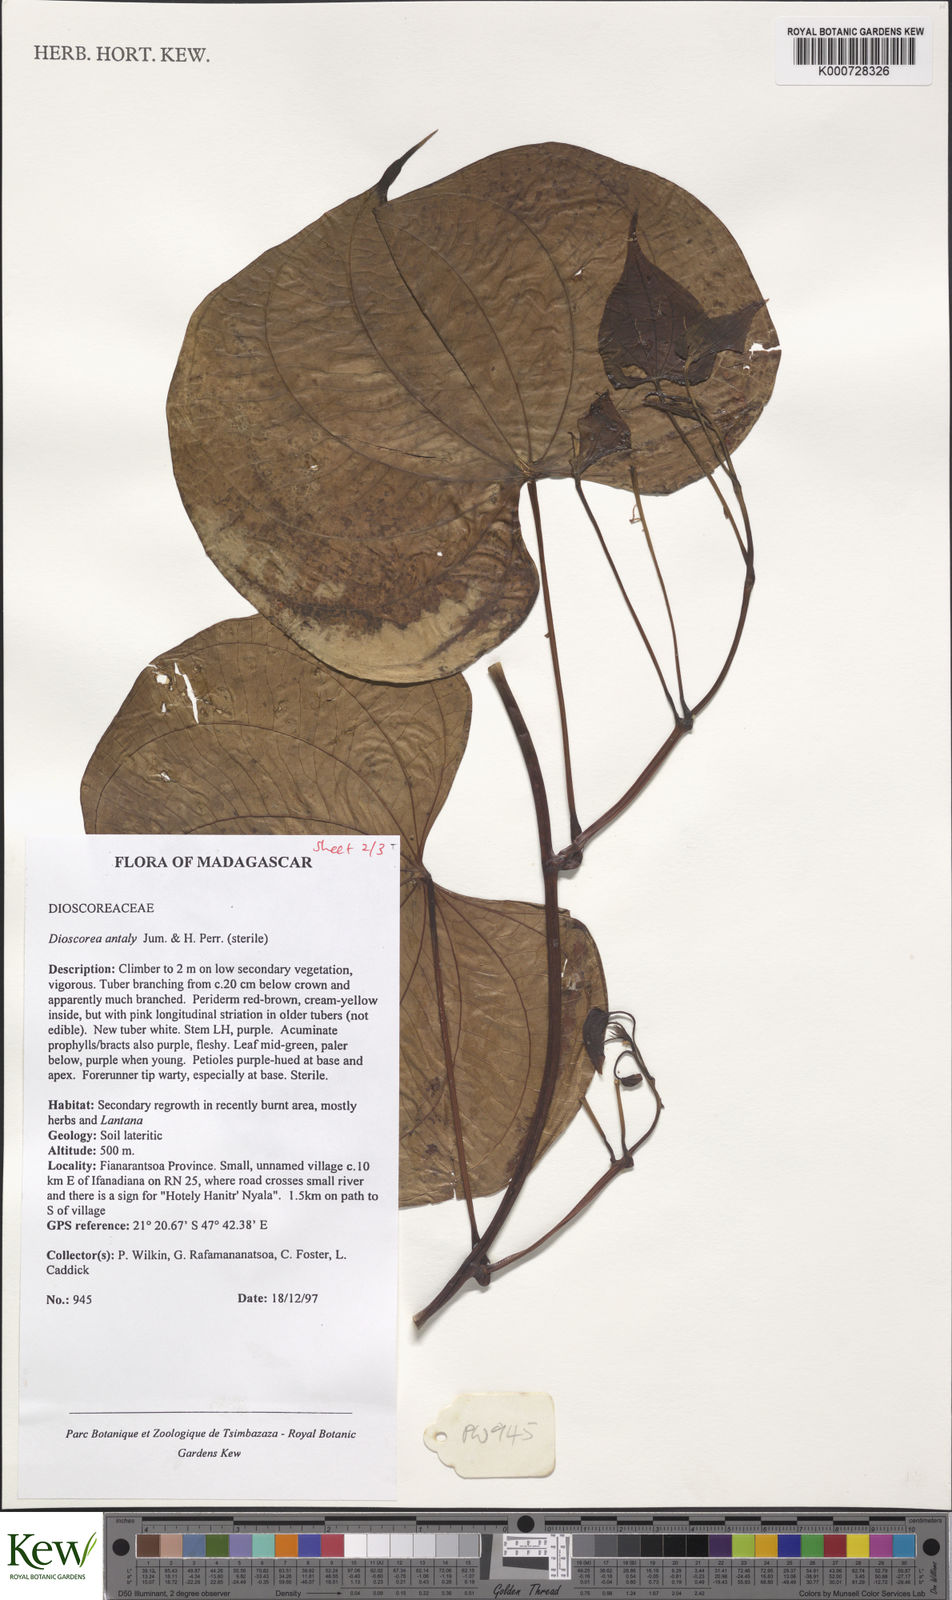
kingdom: Plantae
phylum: Tracheophyta
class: Liliopsida
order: Dioscoreales
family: Dioscoreaceae
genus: Dioscorea
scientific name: Dioscorea antaly
